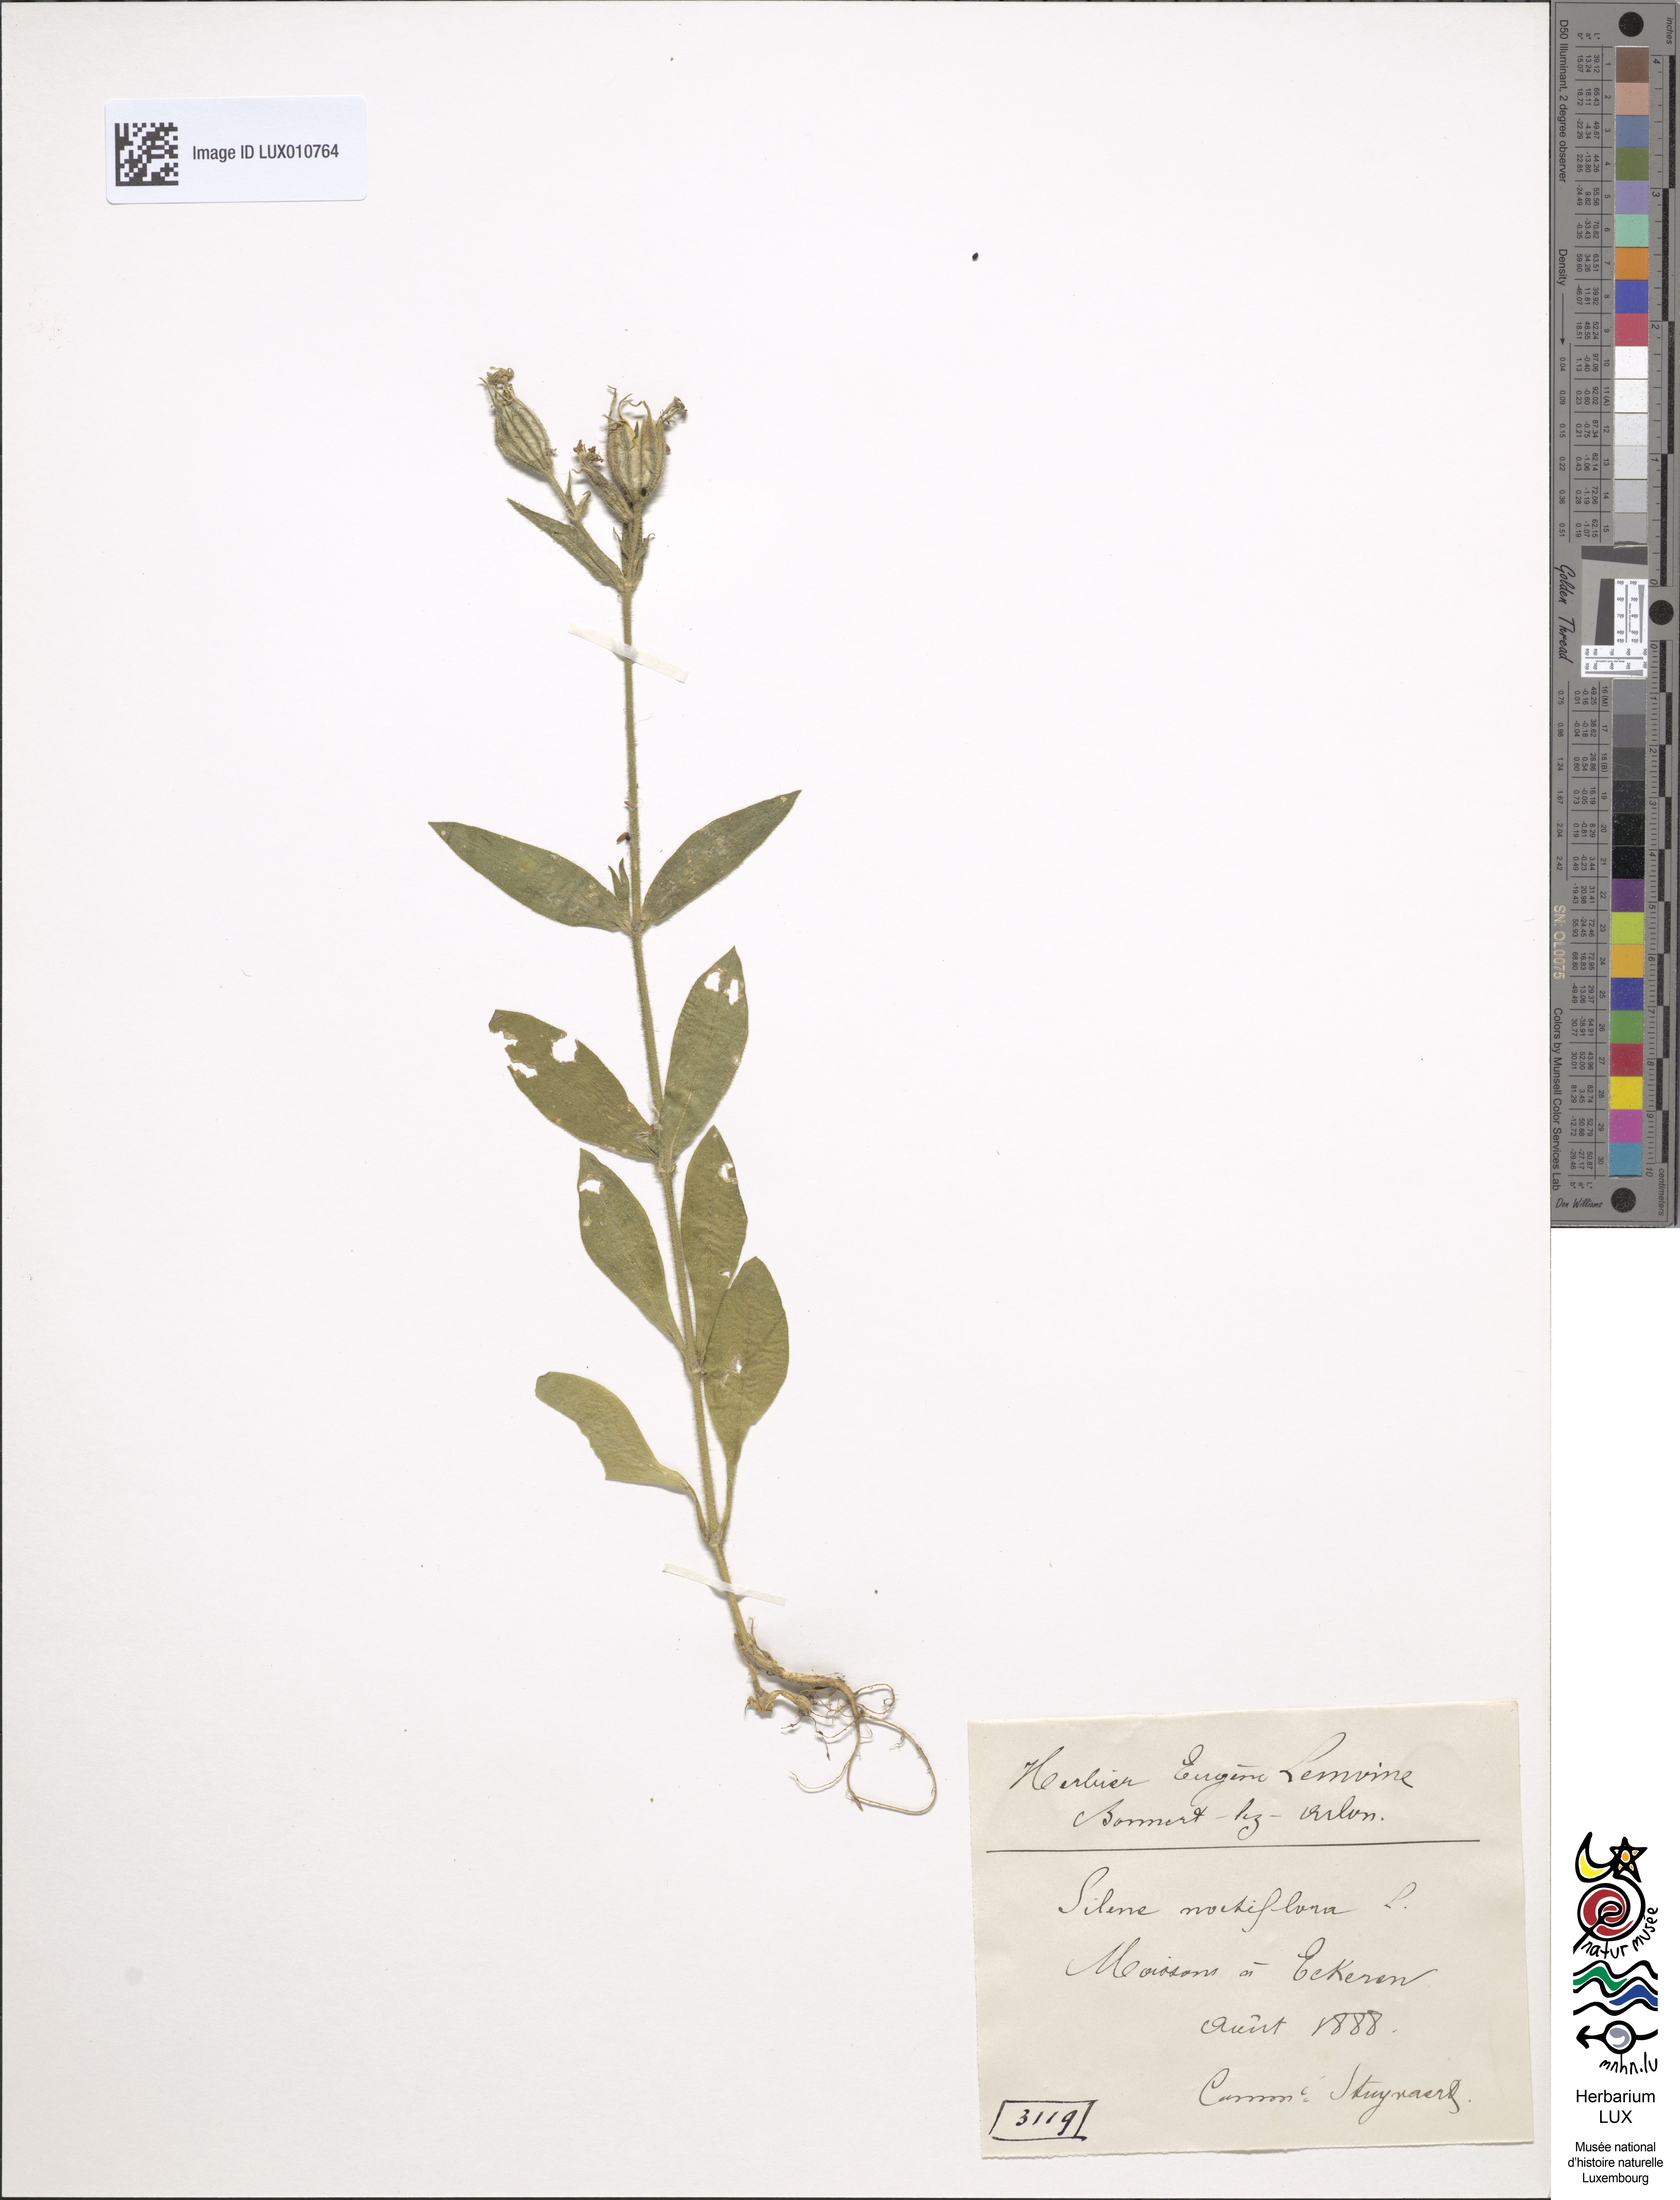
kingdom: Plantae
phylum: Tracheophyta
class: Magnoliopsida
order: Caryophyllales
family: Caryophyllaceae
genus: Silene
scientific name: Silene noctiflora
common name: Night-flowering catchfly
